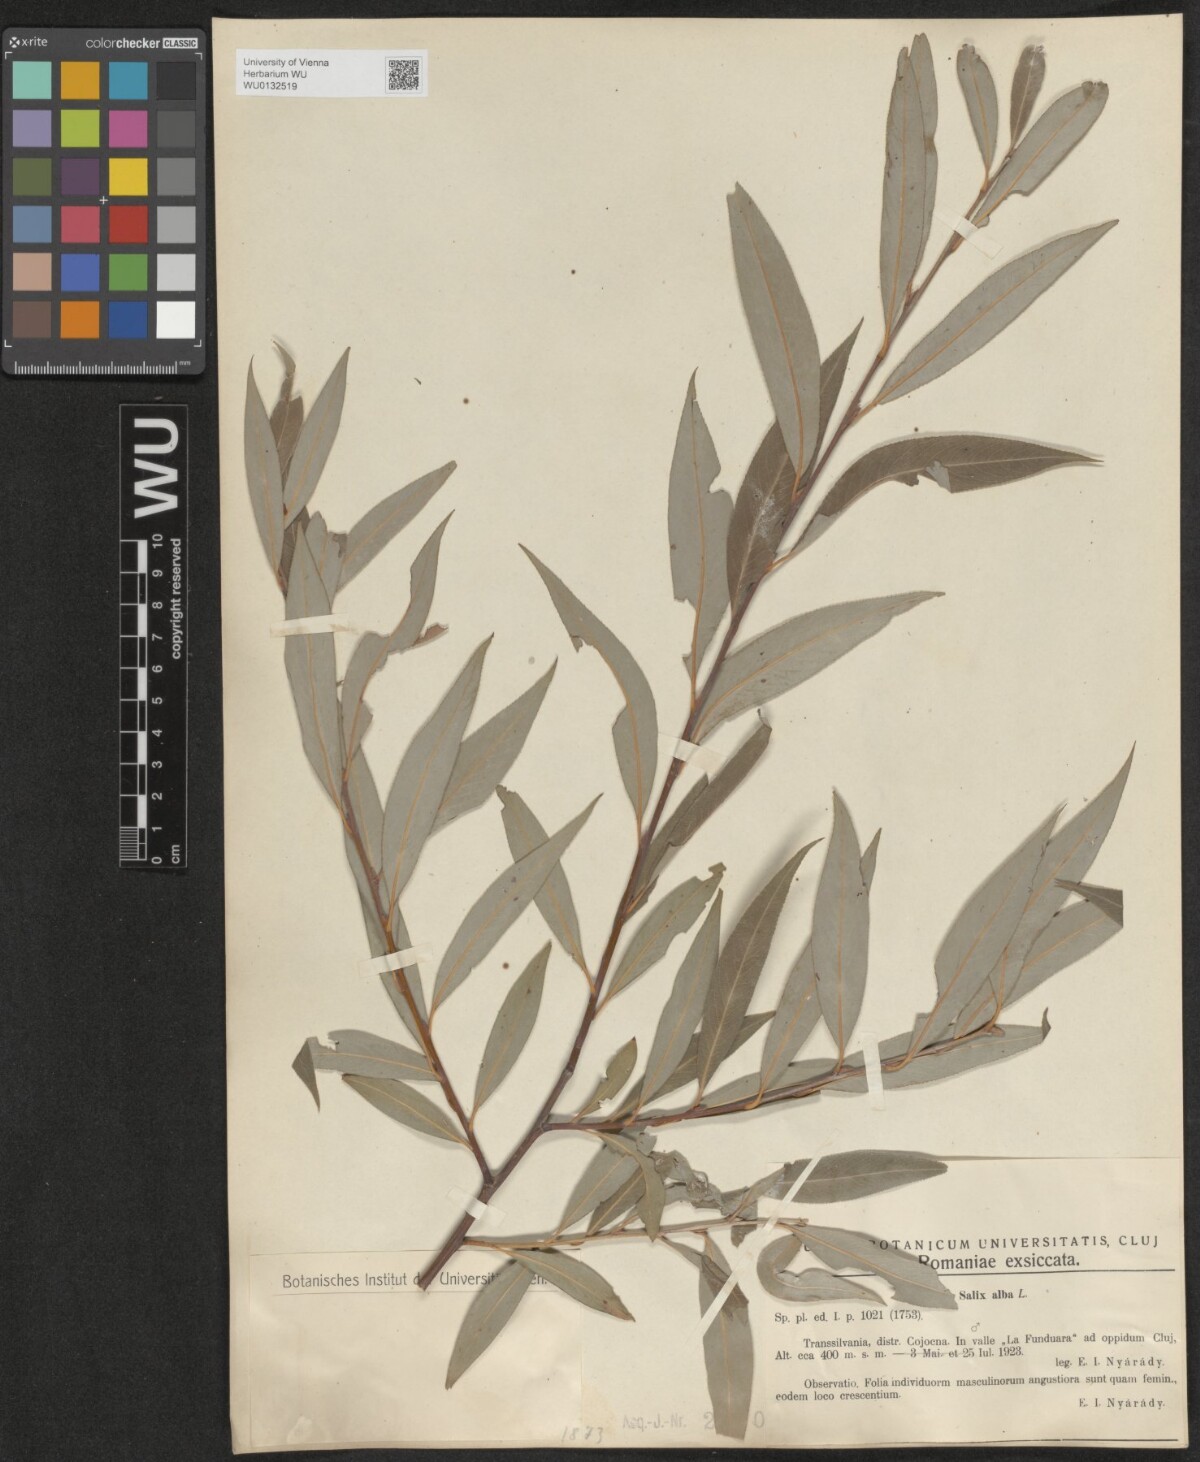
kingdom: Plantae
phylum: Tracheophyta
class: Magnoliopsida
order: Malpighiales
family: Salicaceae
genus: Salix
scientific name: Salix alba
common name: White willow
